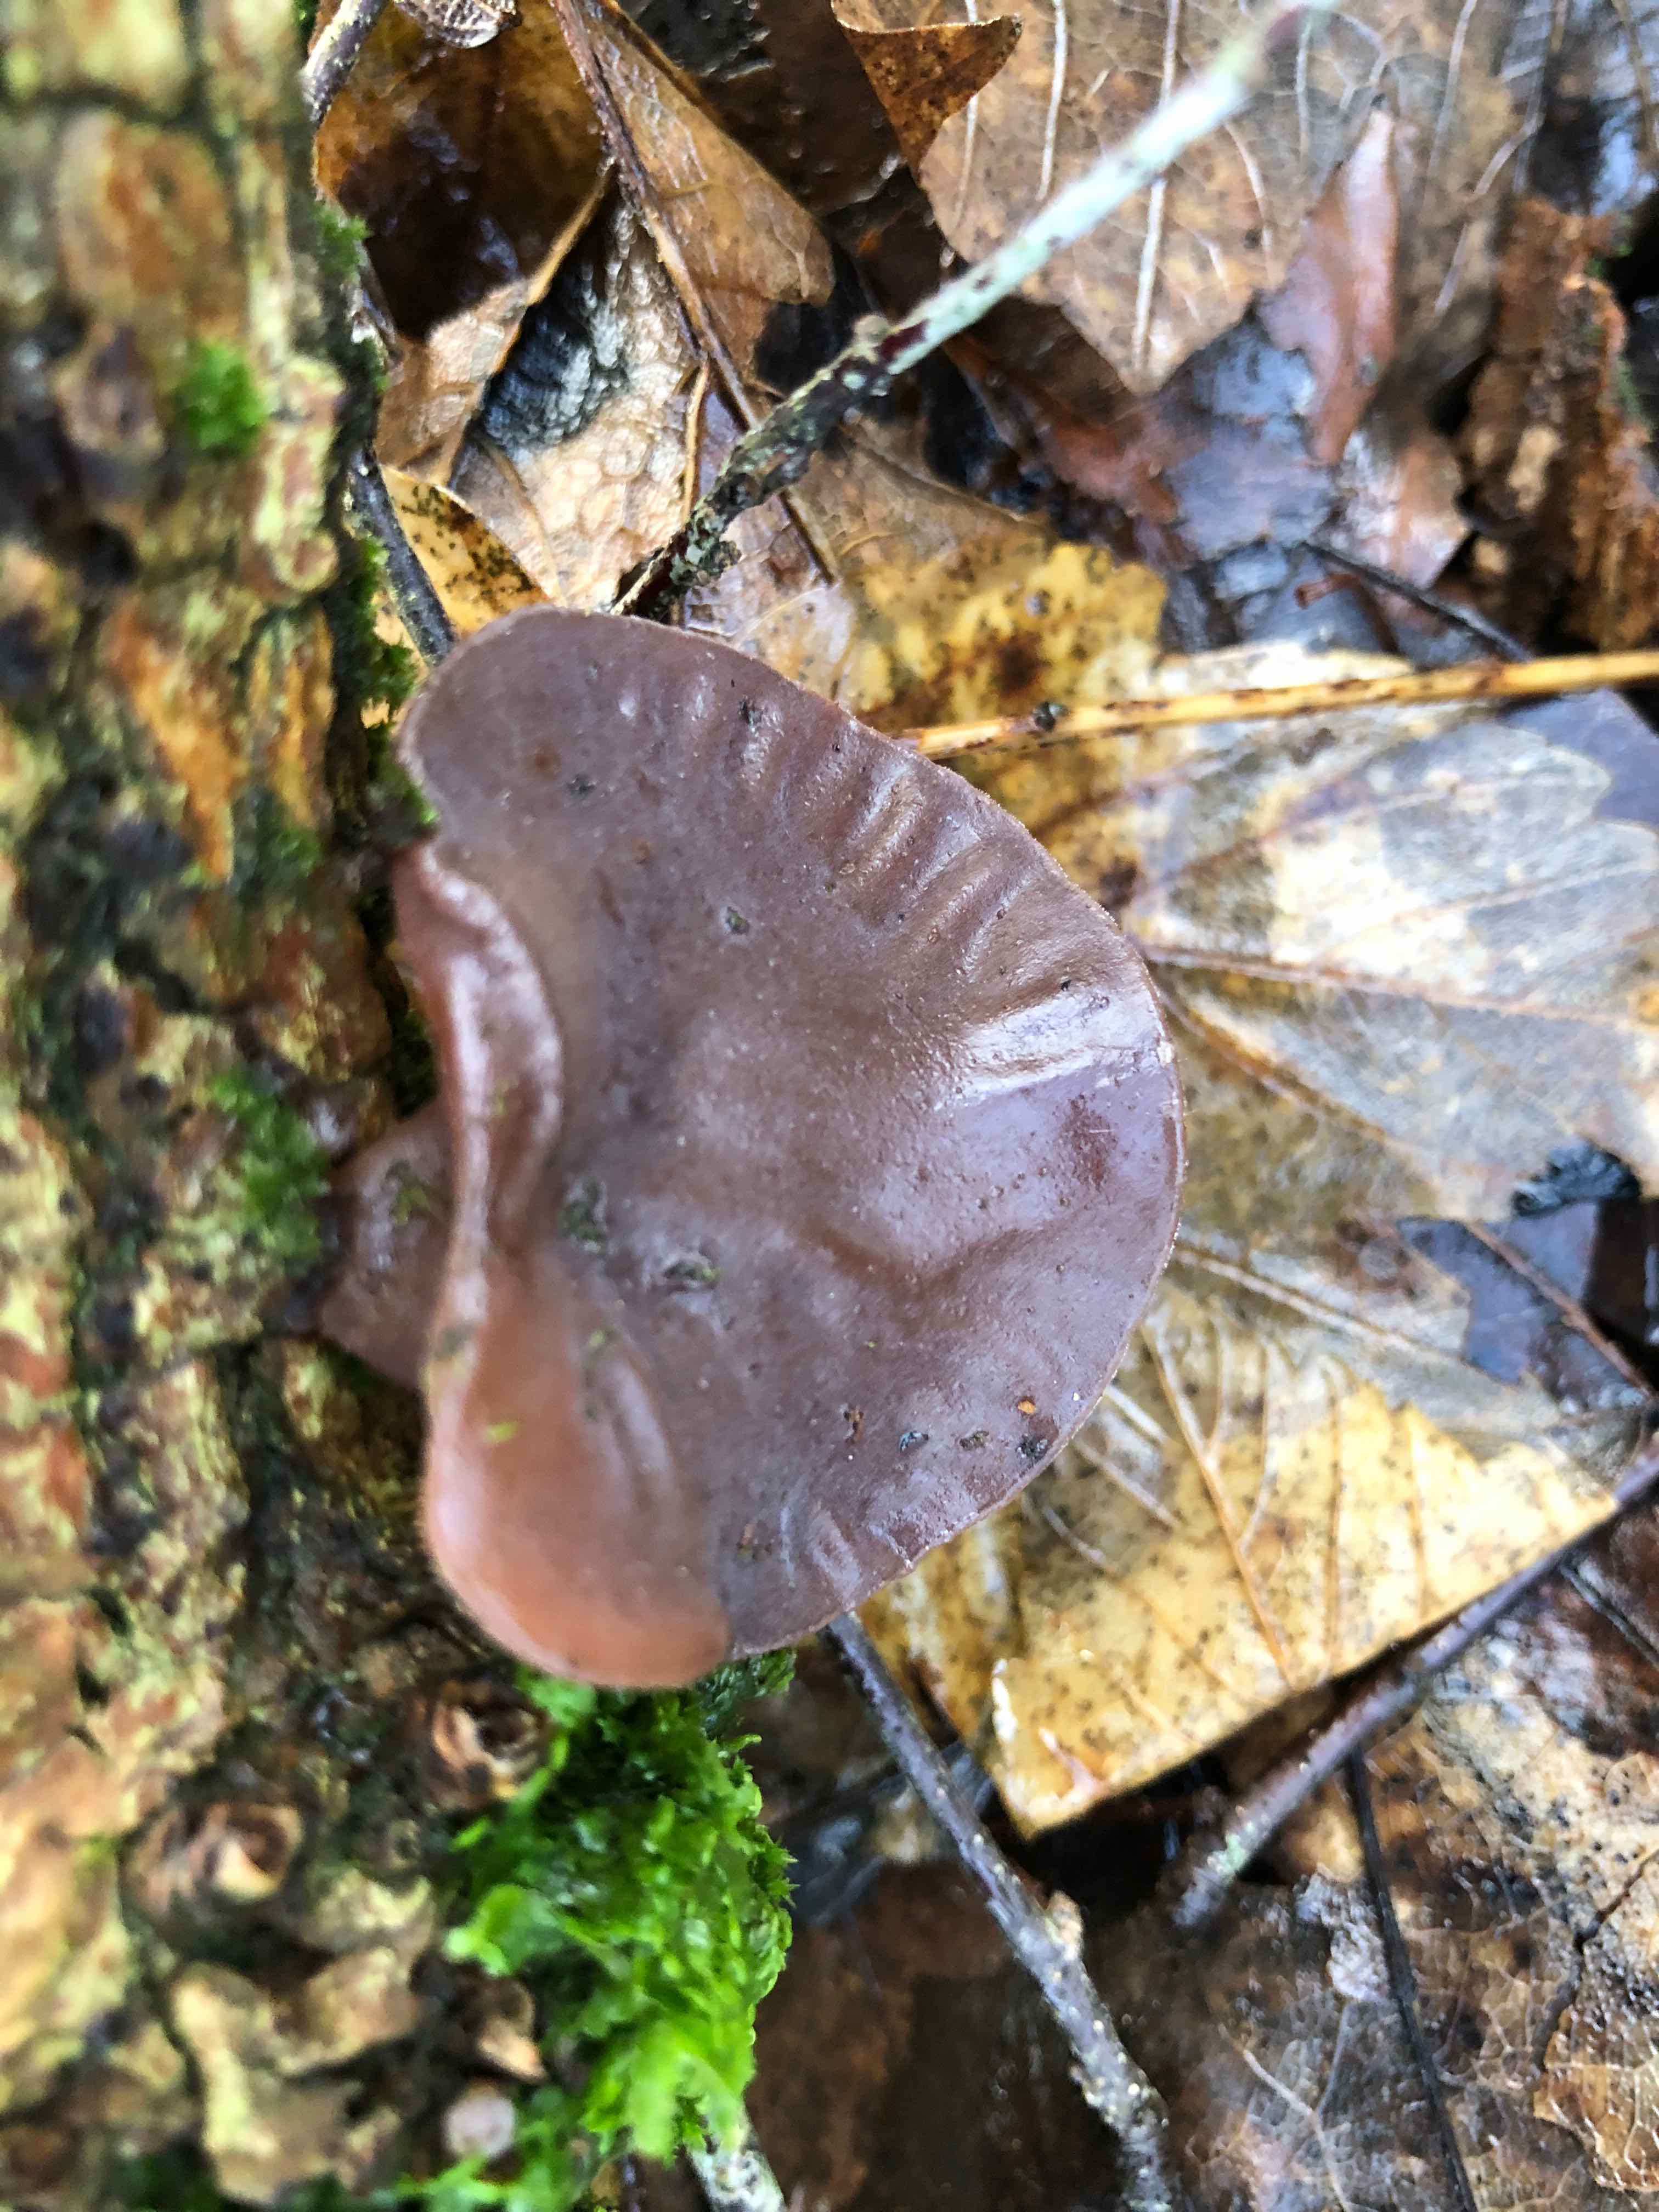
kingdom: Fungi
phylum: Basidiomycota
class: Agaricomycetes
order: Auriculariales
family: Auriculariaceae
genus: Auricularia
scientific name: Auricularia auricula-judae
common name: almindelig judasøre
